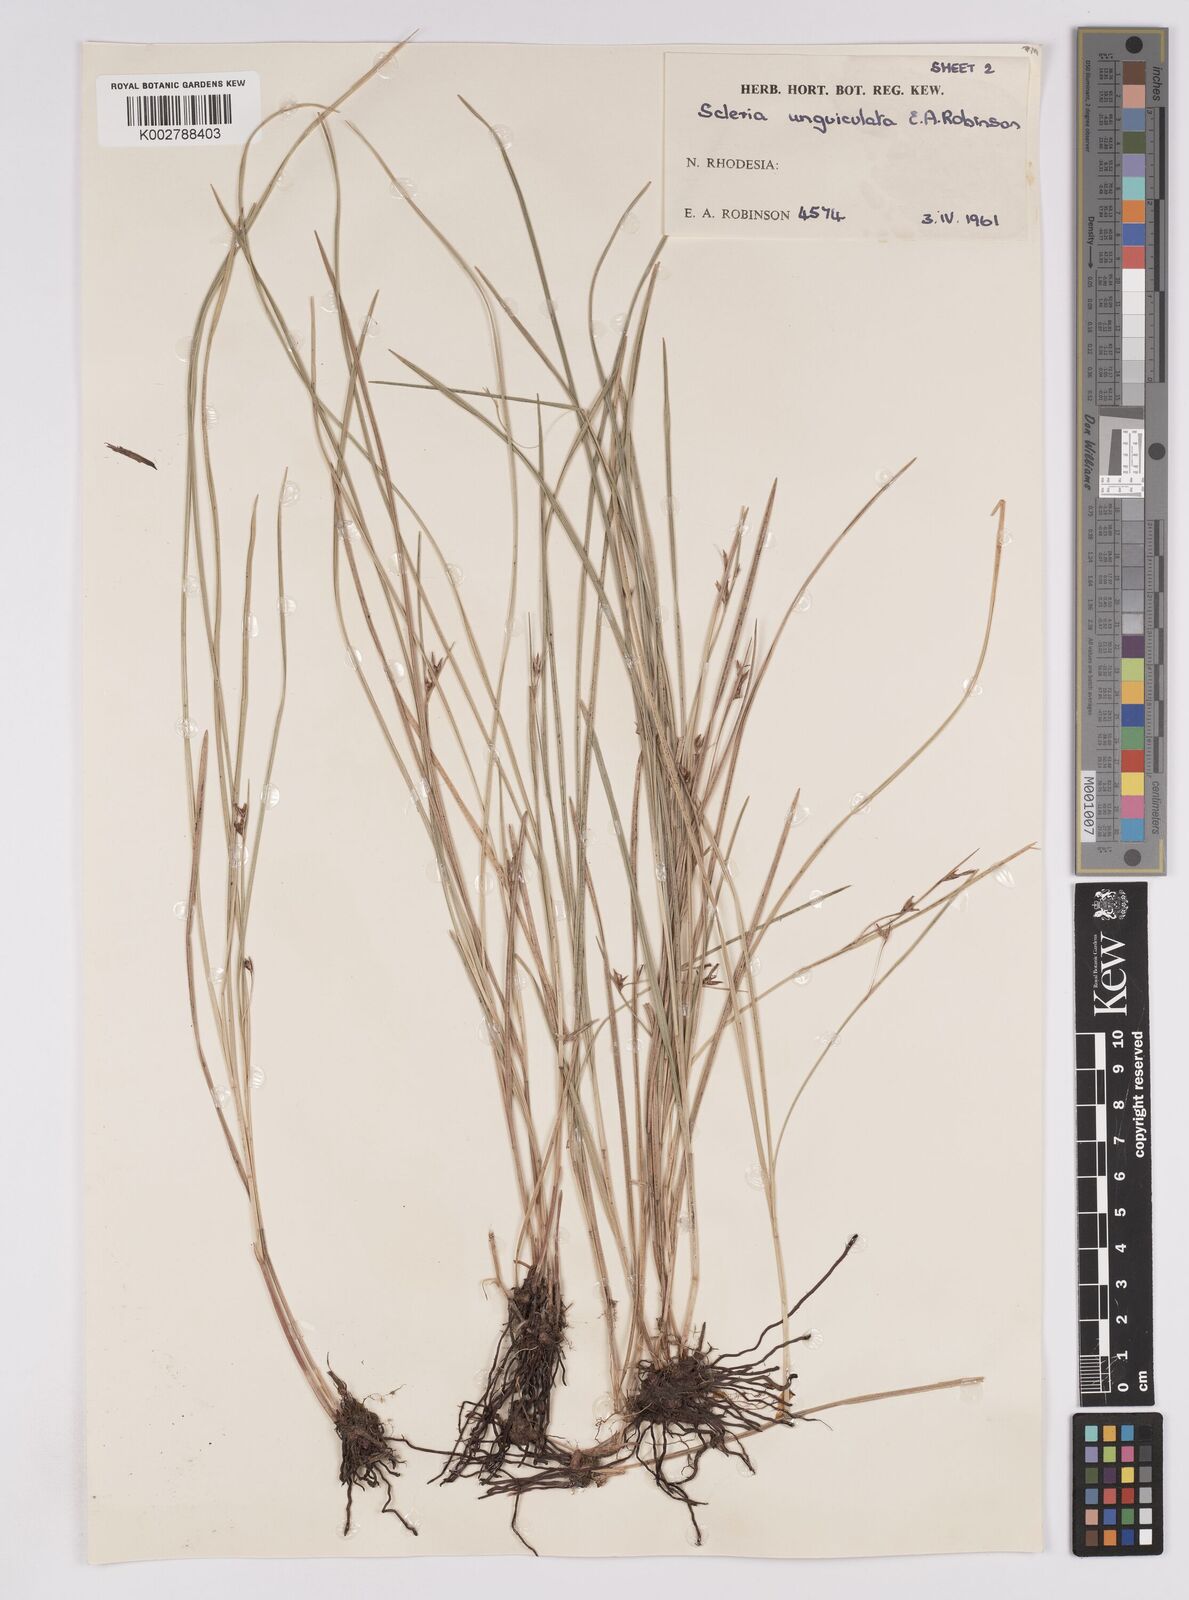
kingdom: Plantae
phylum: Tracheophyta
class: Liliopsida
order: Poales
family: Cyperaceae
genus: Scleria
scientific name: Scleria unguiculata
